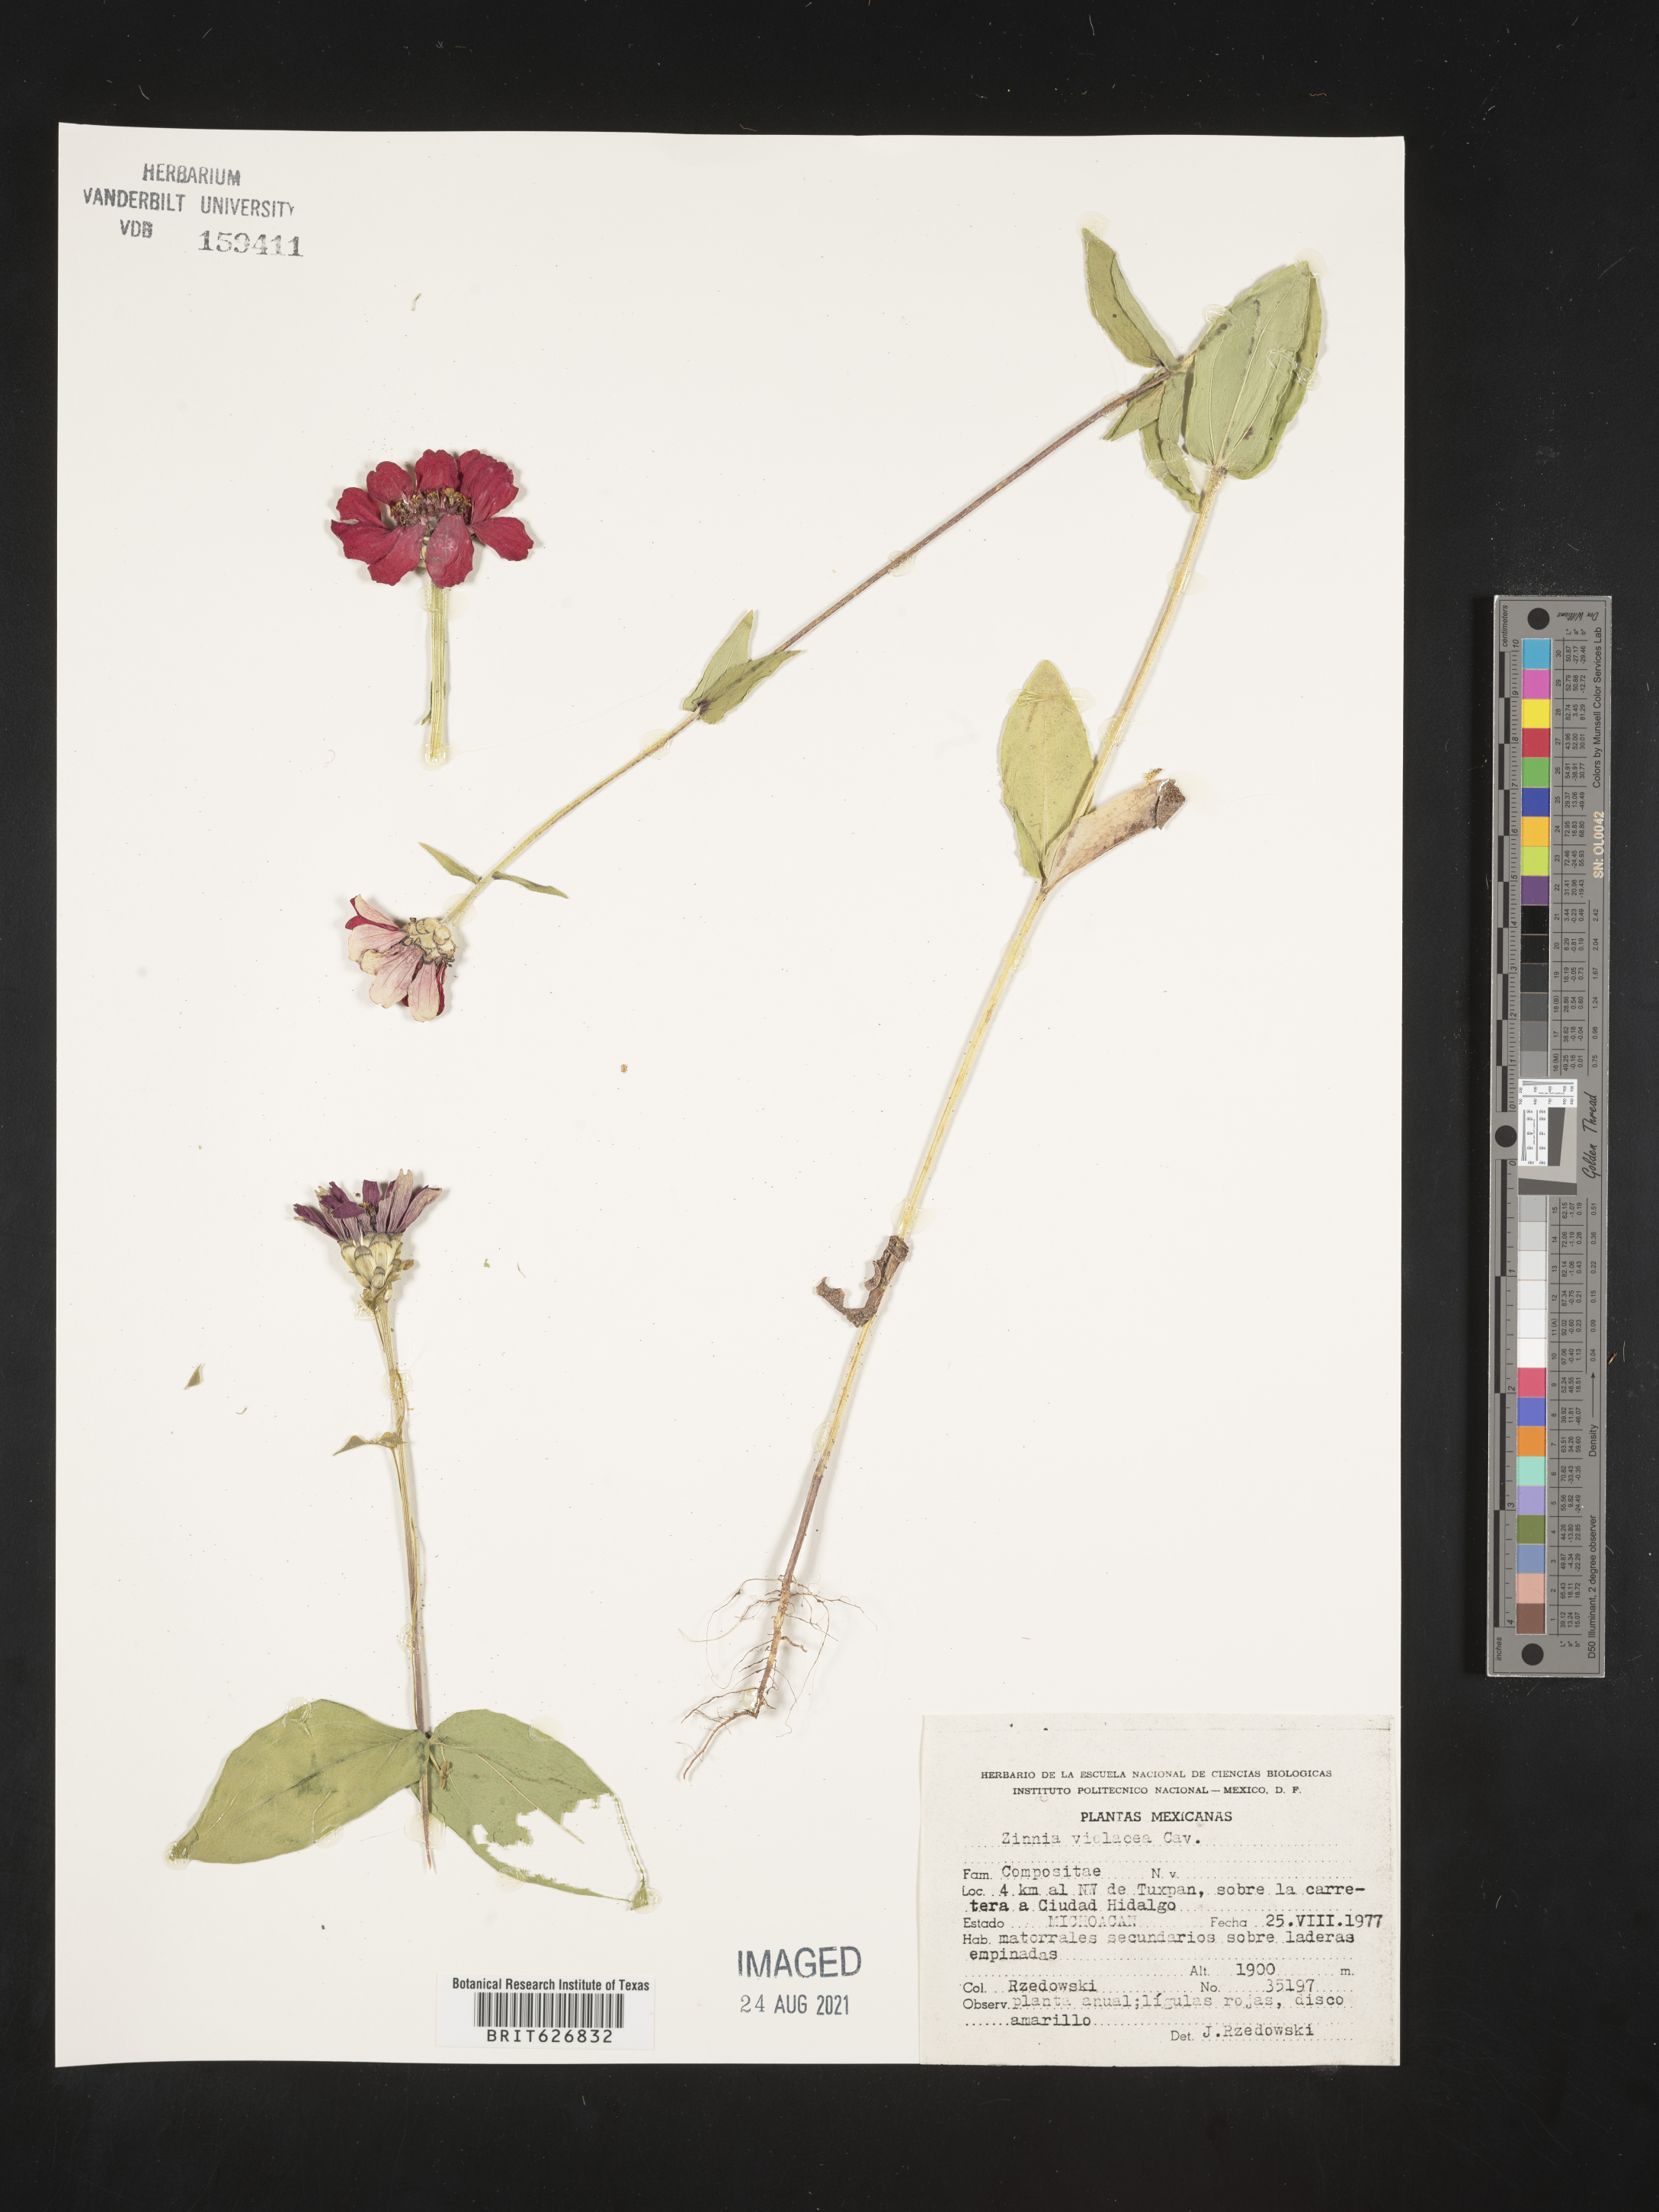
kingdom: Plantae
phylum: Tracheophyta
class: Magnoliopsida
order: Asterales
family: Asteraceae
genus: Zinnia
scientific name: Zinnia
